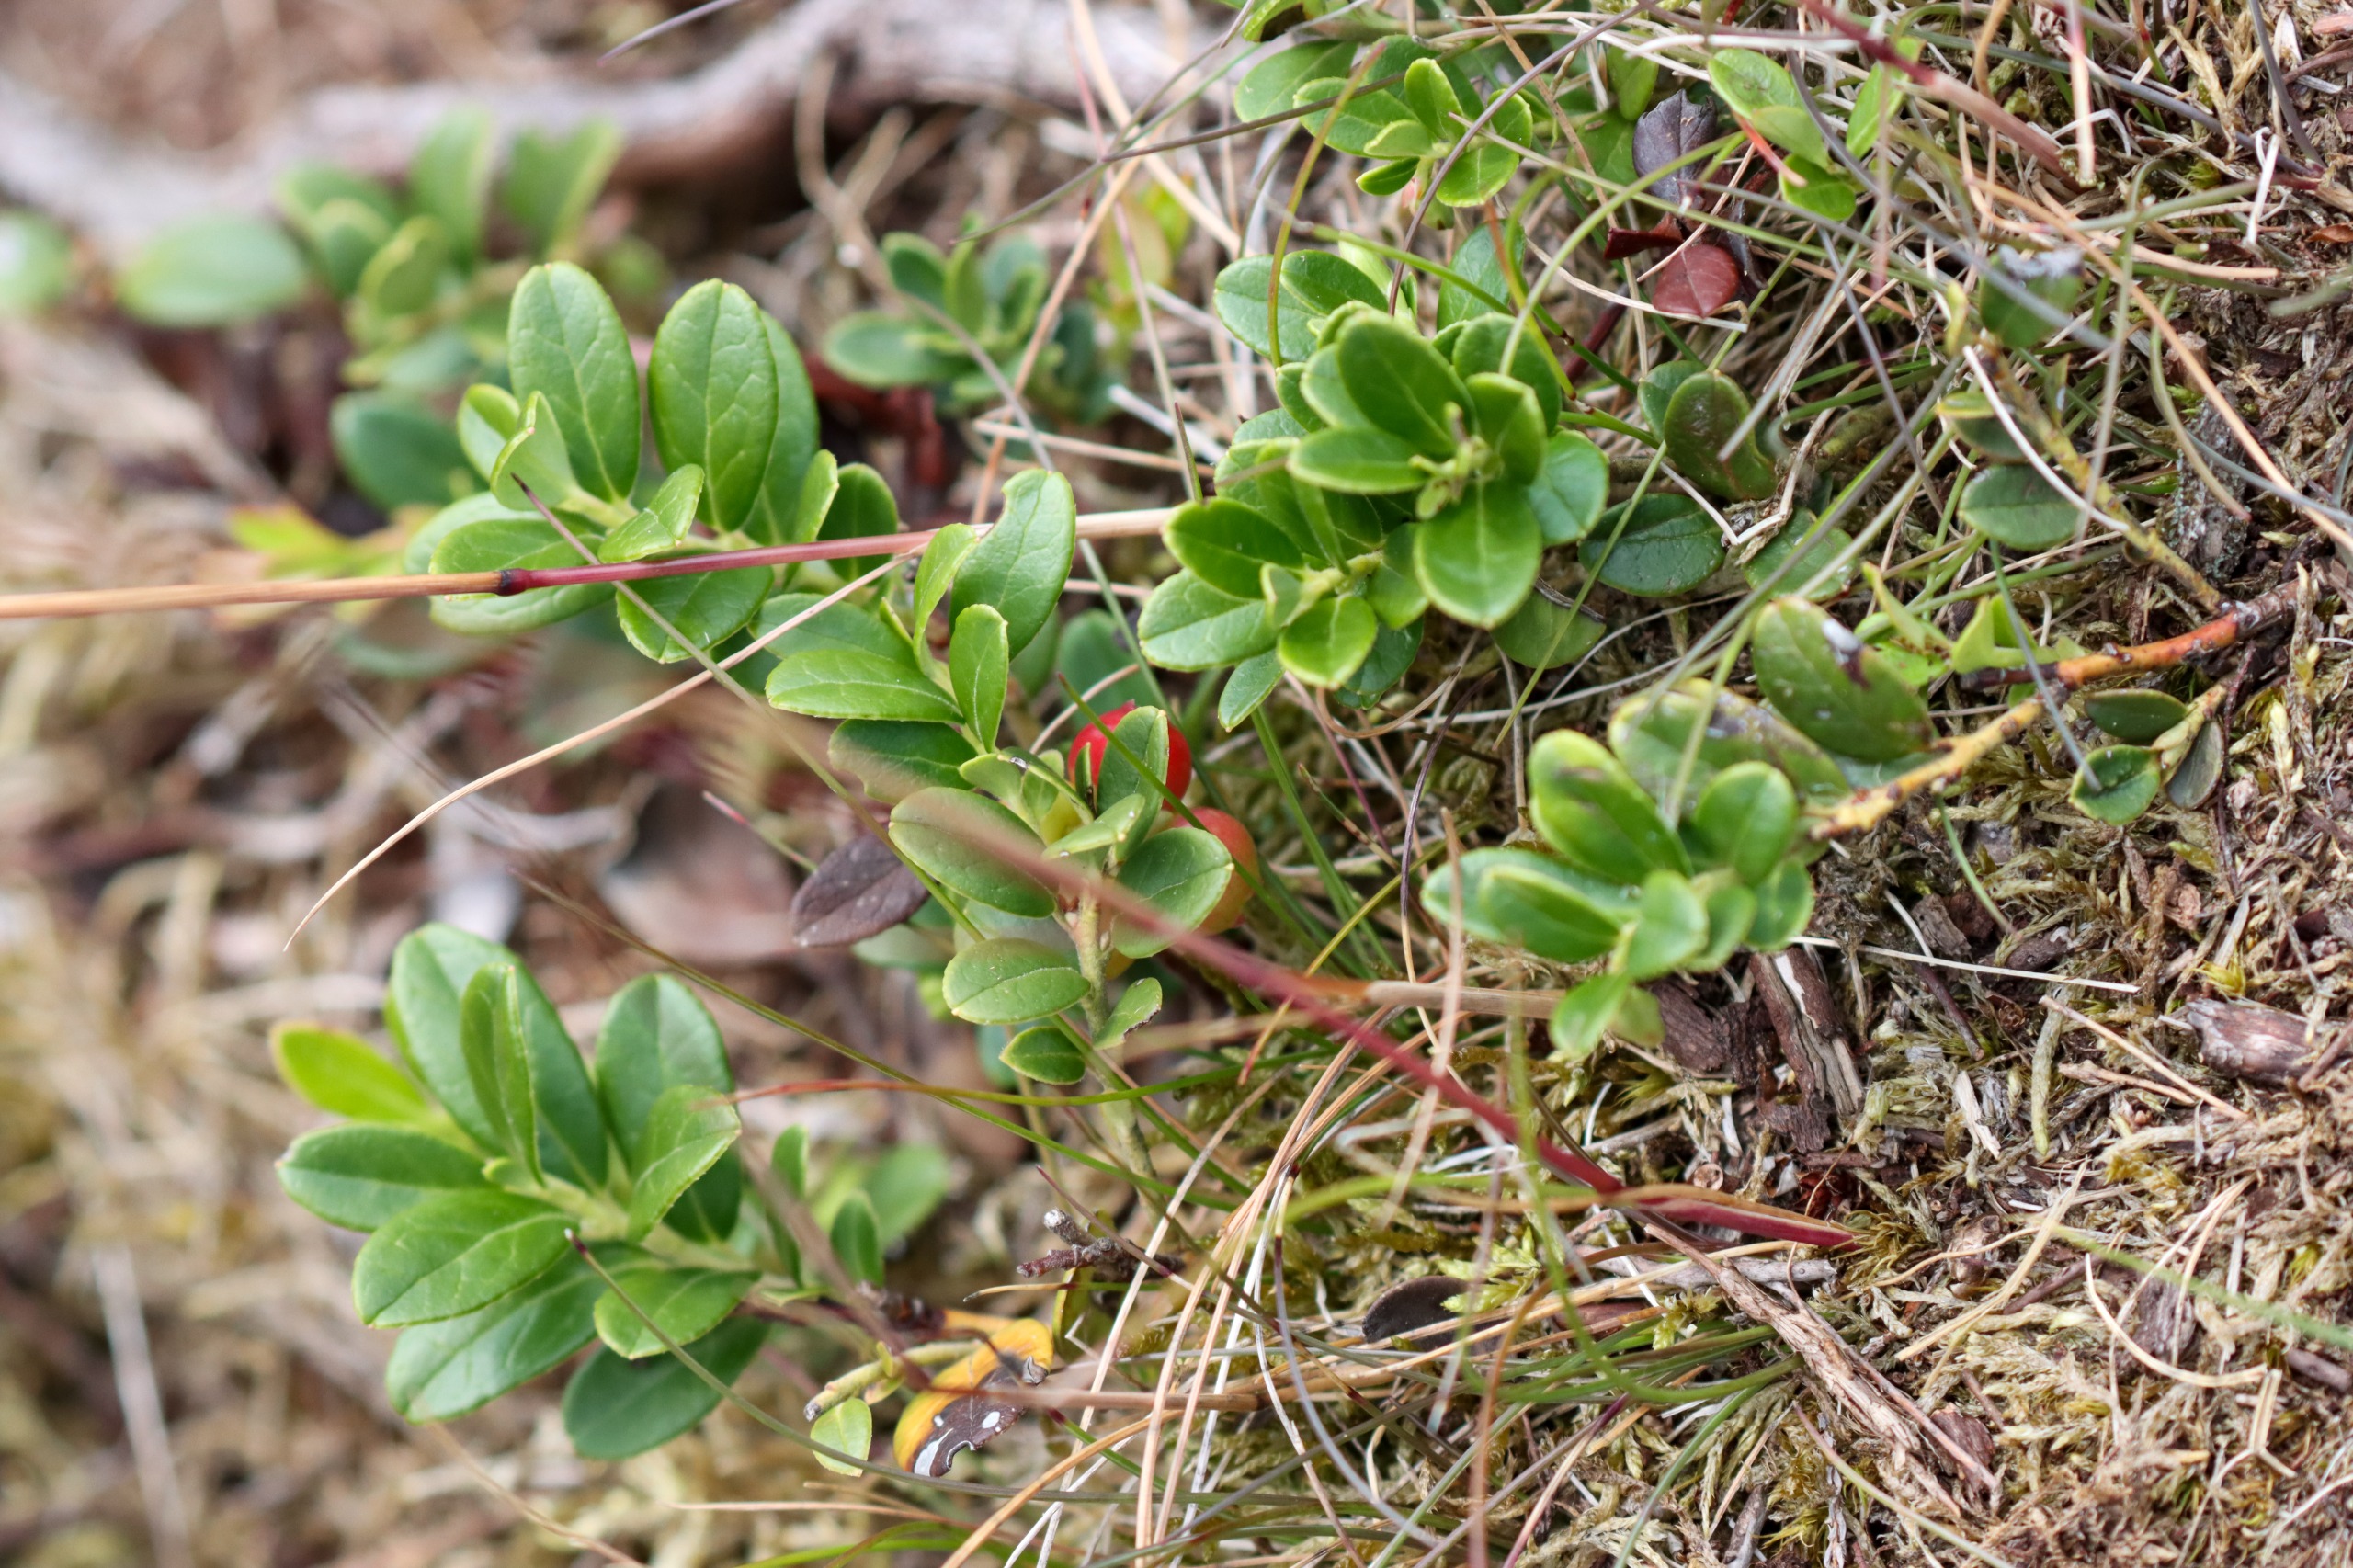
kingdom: Plantae
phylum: Tracheophyta
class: Magnoliopsida
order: Ericales
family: Ericaceae
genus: Vaccinium
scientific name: Vaccinium vitis-idaea
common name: Tyttebær
